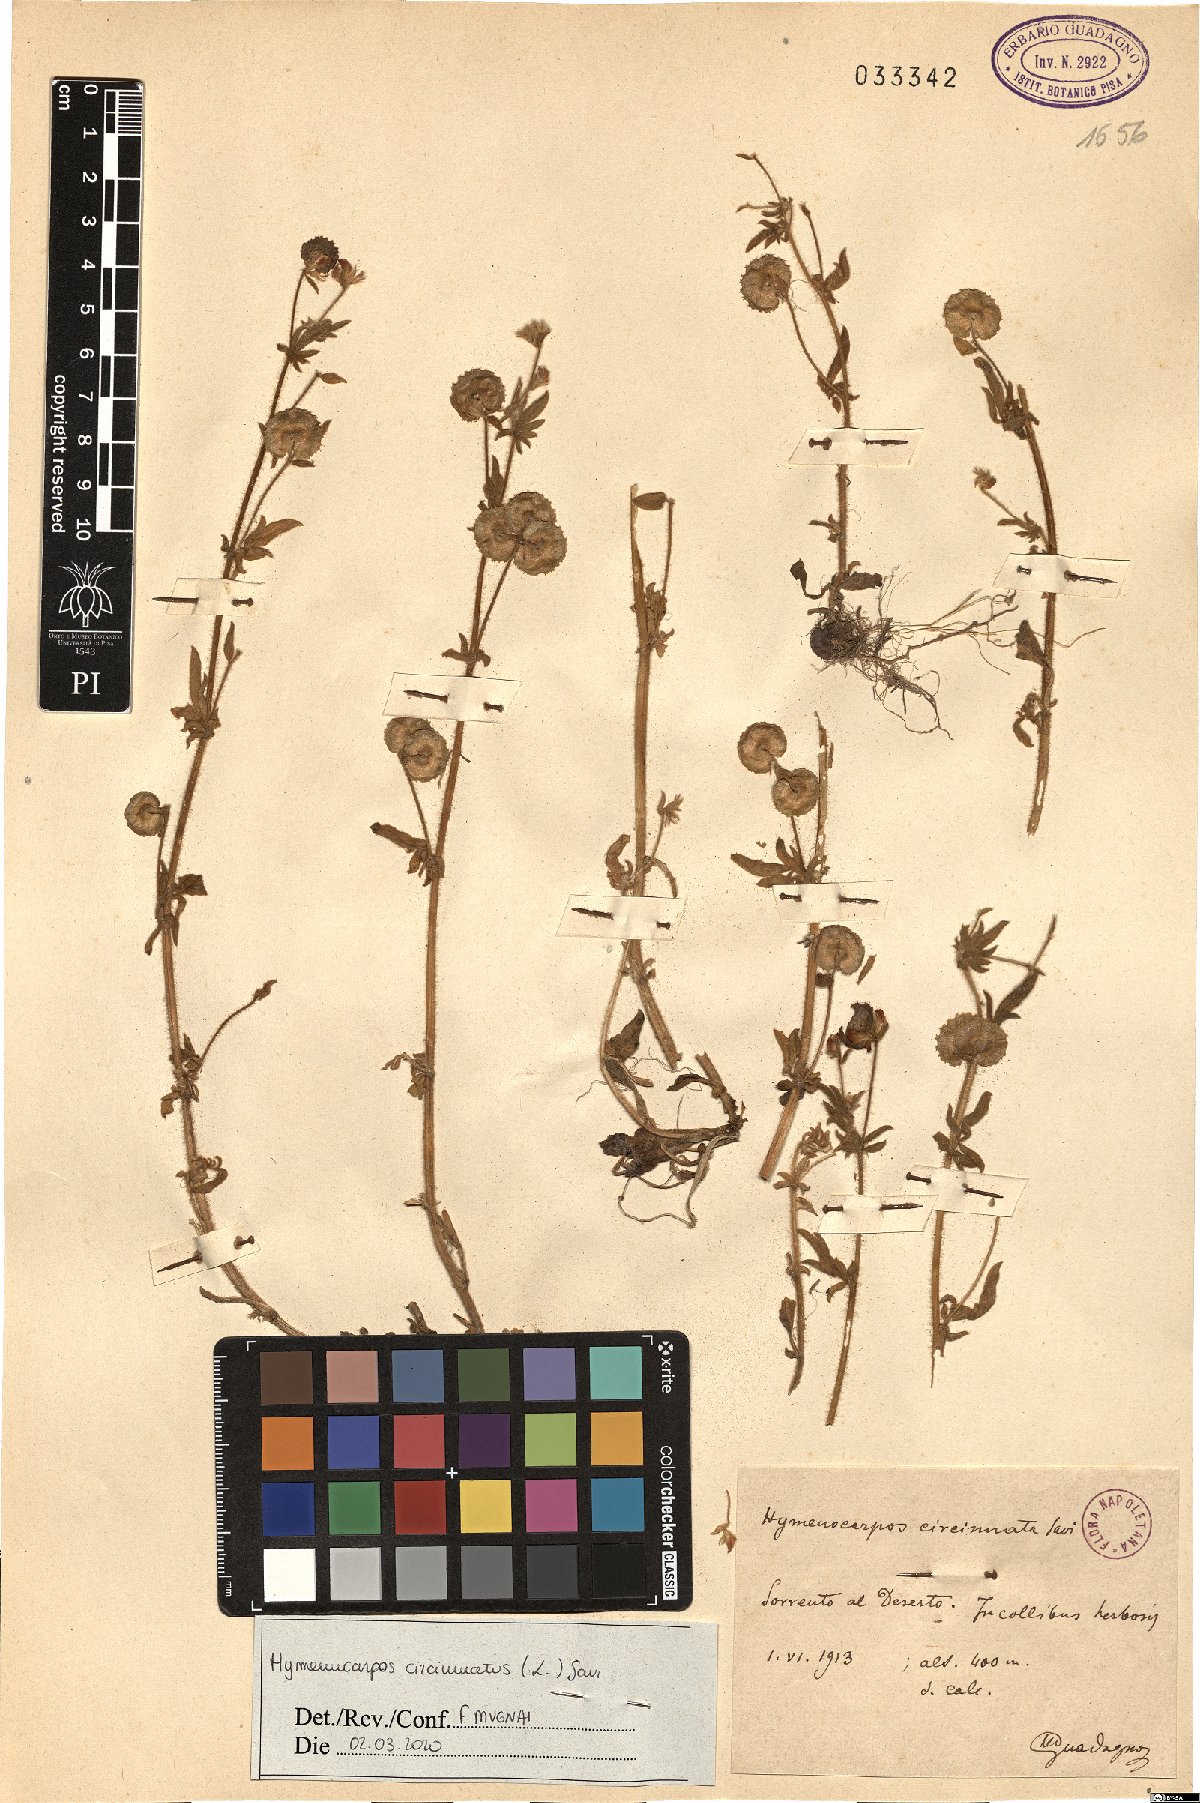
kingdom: Plantae
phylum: Tracheophyta
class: Magnoliopsida
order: Fabales
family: Fabaceae
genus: Anthyllis
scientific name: Anthyllis circinnata
